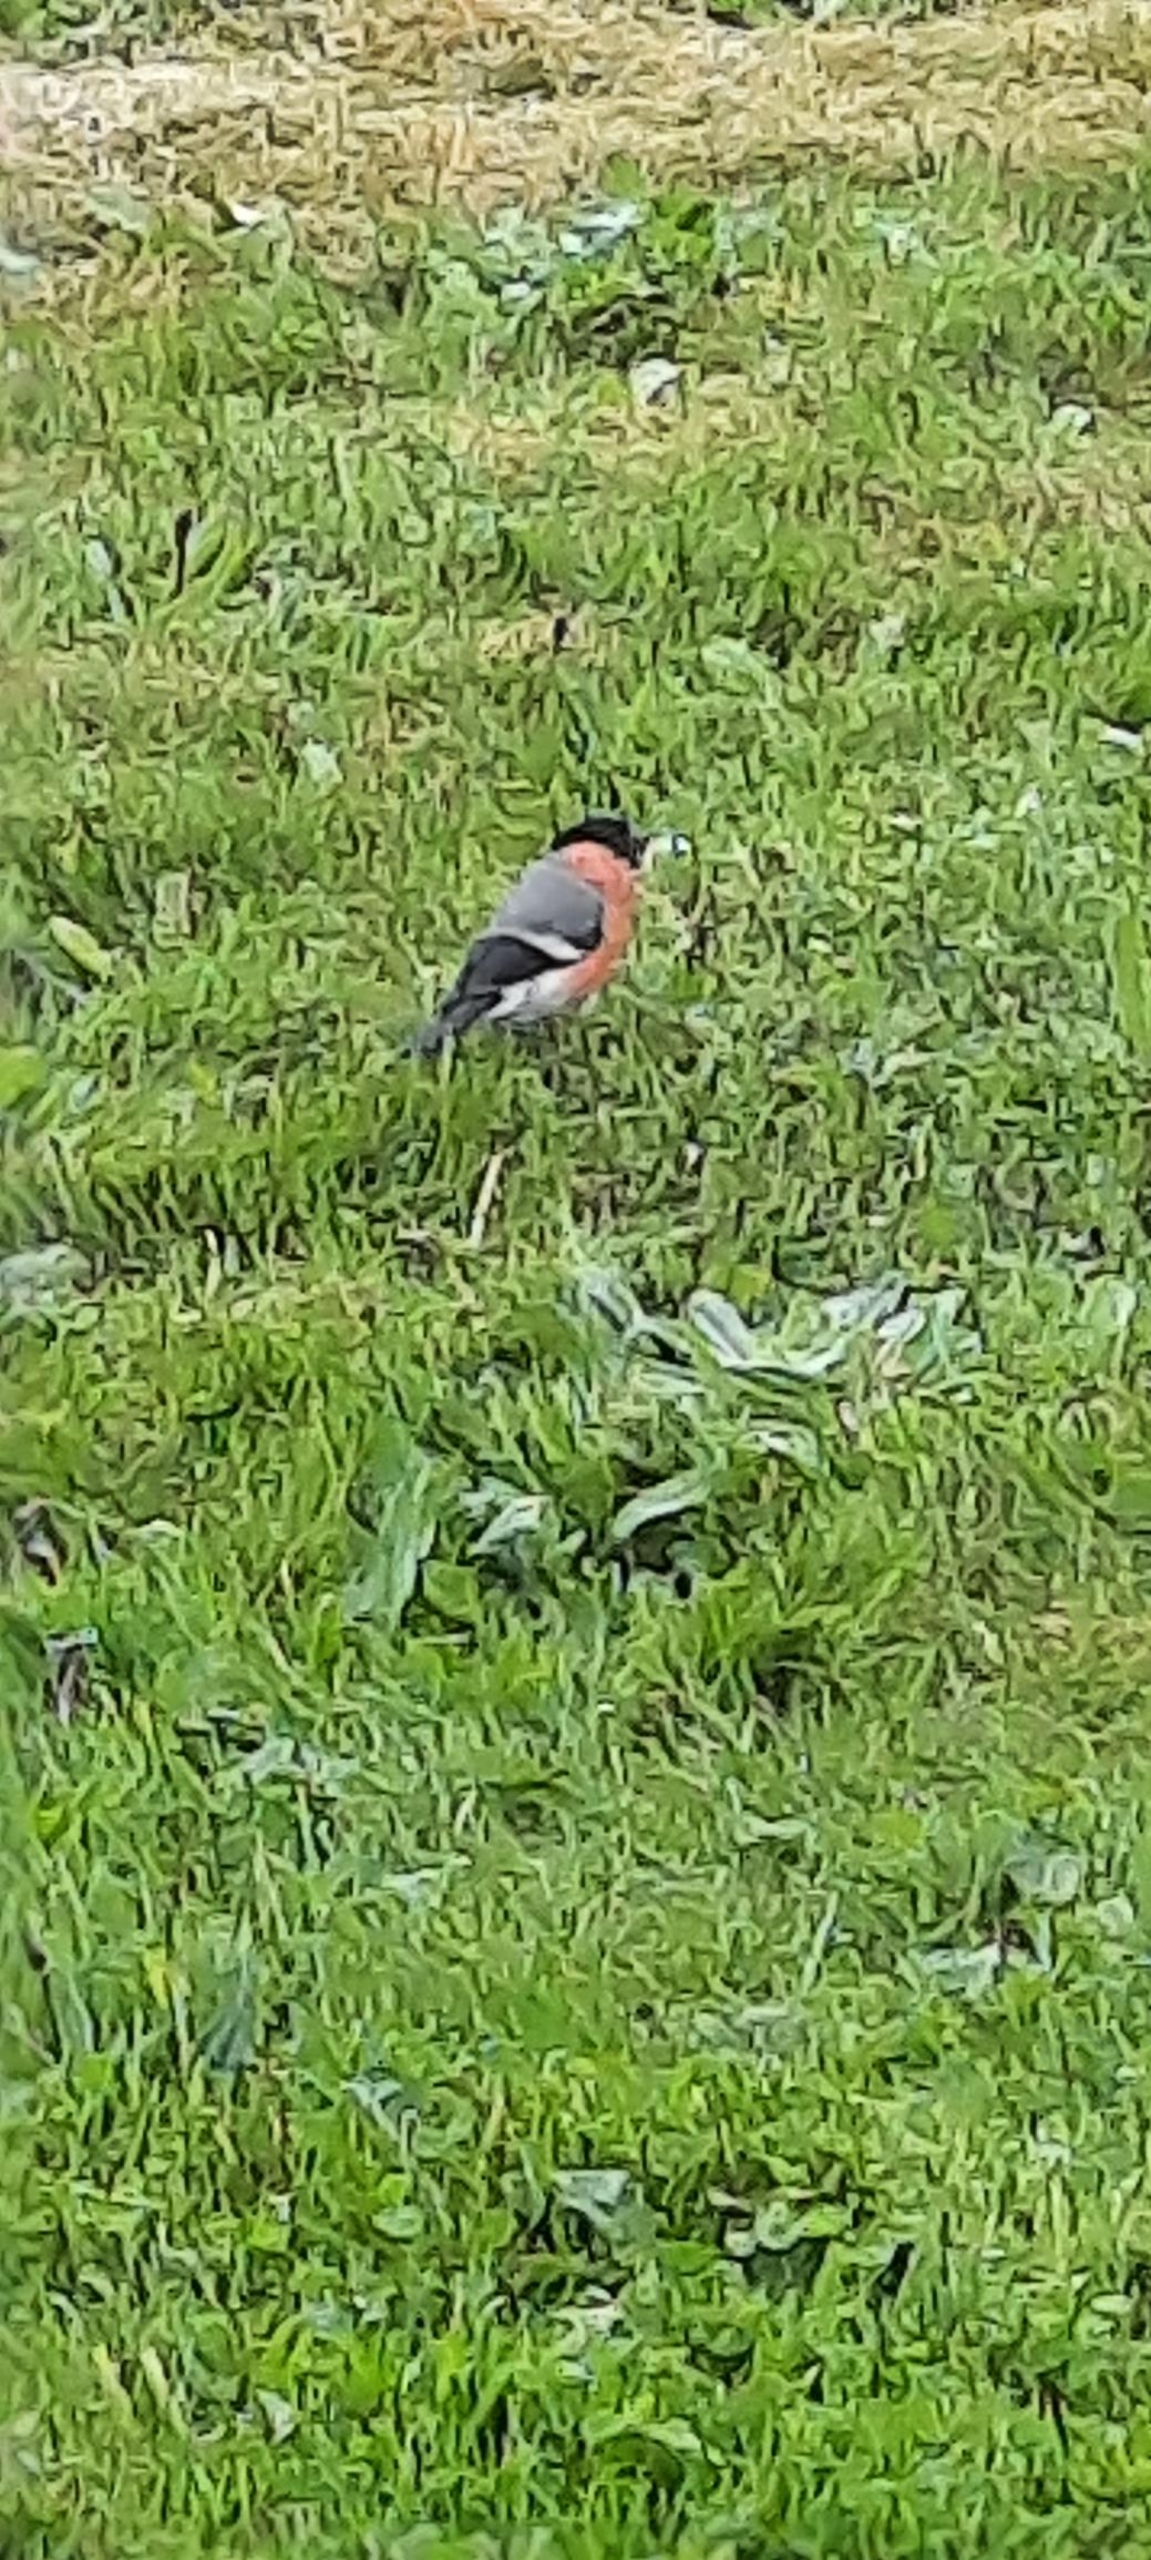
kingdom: Animalia
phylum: Chordata
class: Aves
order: Passeriformes
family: Fringillidae
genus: Pyrrhula
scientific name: Pyrrhula pyrrhula
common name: Dompap
